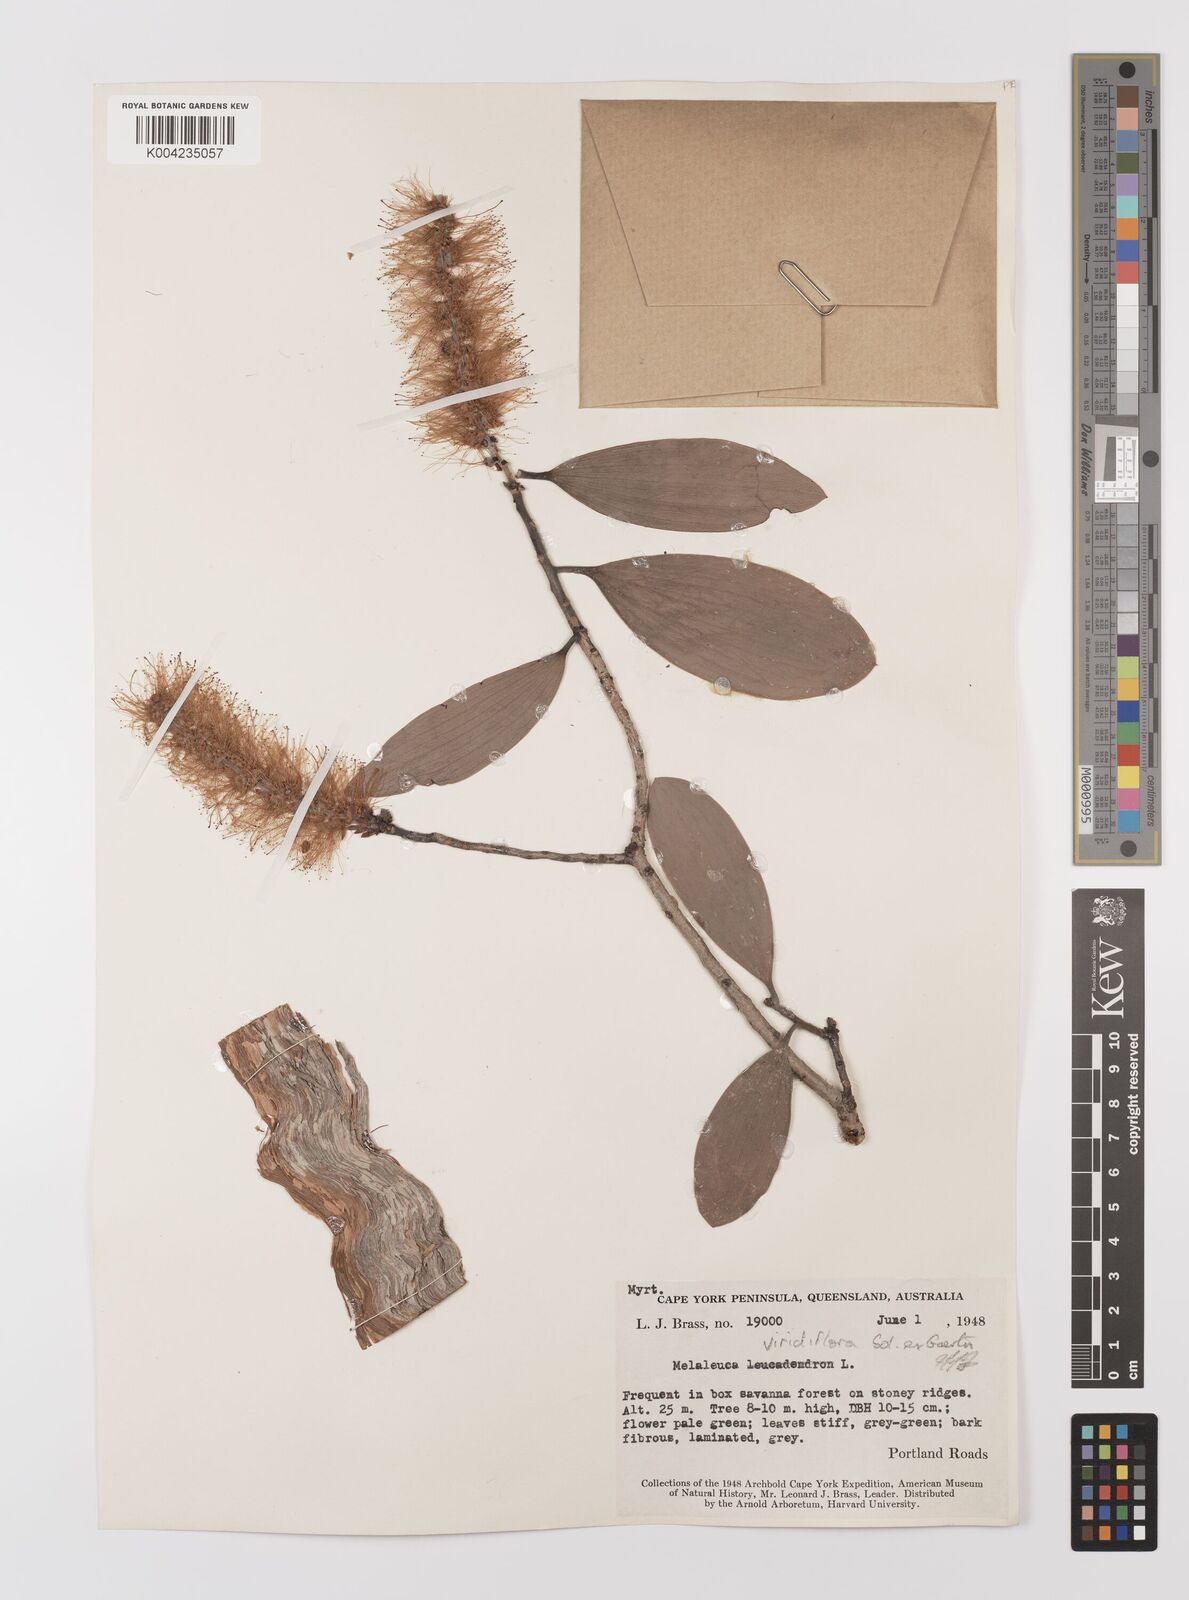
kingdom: Plantae
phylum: Tracheophyta
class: Magnoliopsida
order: Myrtales
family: Myrtaceae
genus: Melaleuca
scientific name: Melaleuca viridiflora
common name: Brown-leaved paperbark
